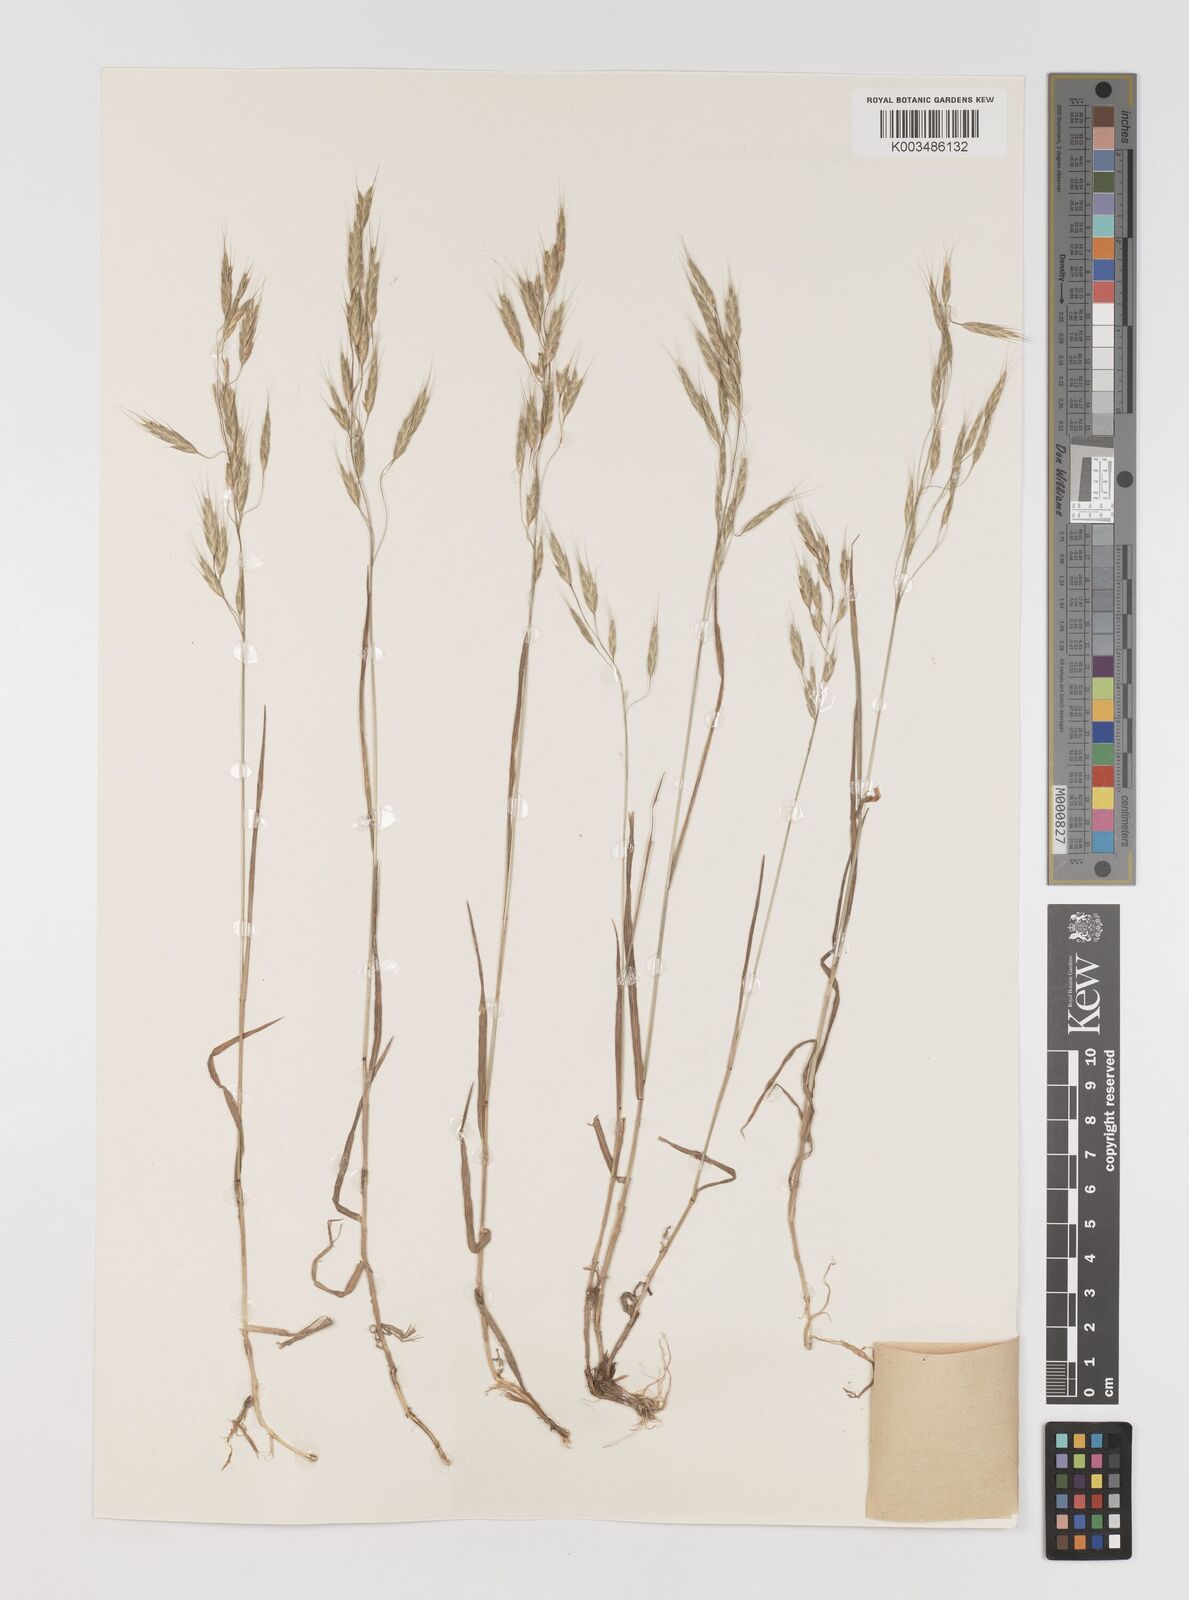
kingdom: Plantae
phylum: Tracheophyta
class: Liliopsida
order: Poales
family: Poaceae
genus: Bromus
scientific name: Bromus japonicus
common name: Japanese brome
